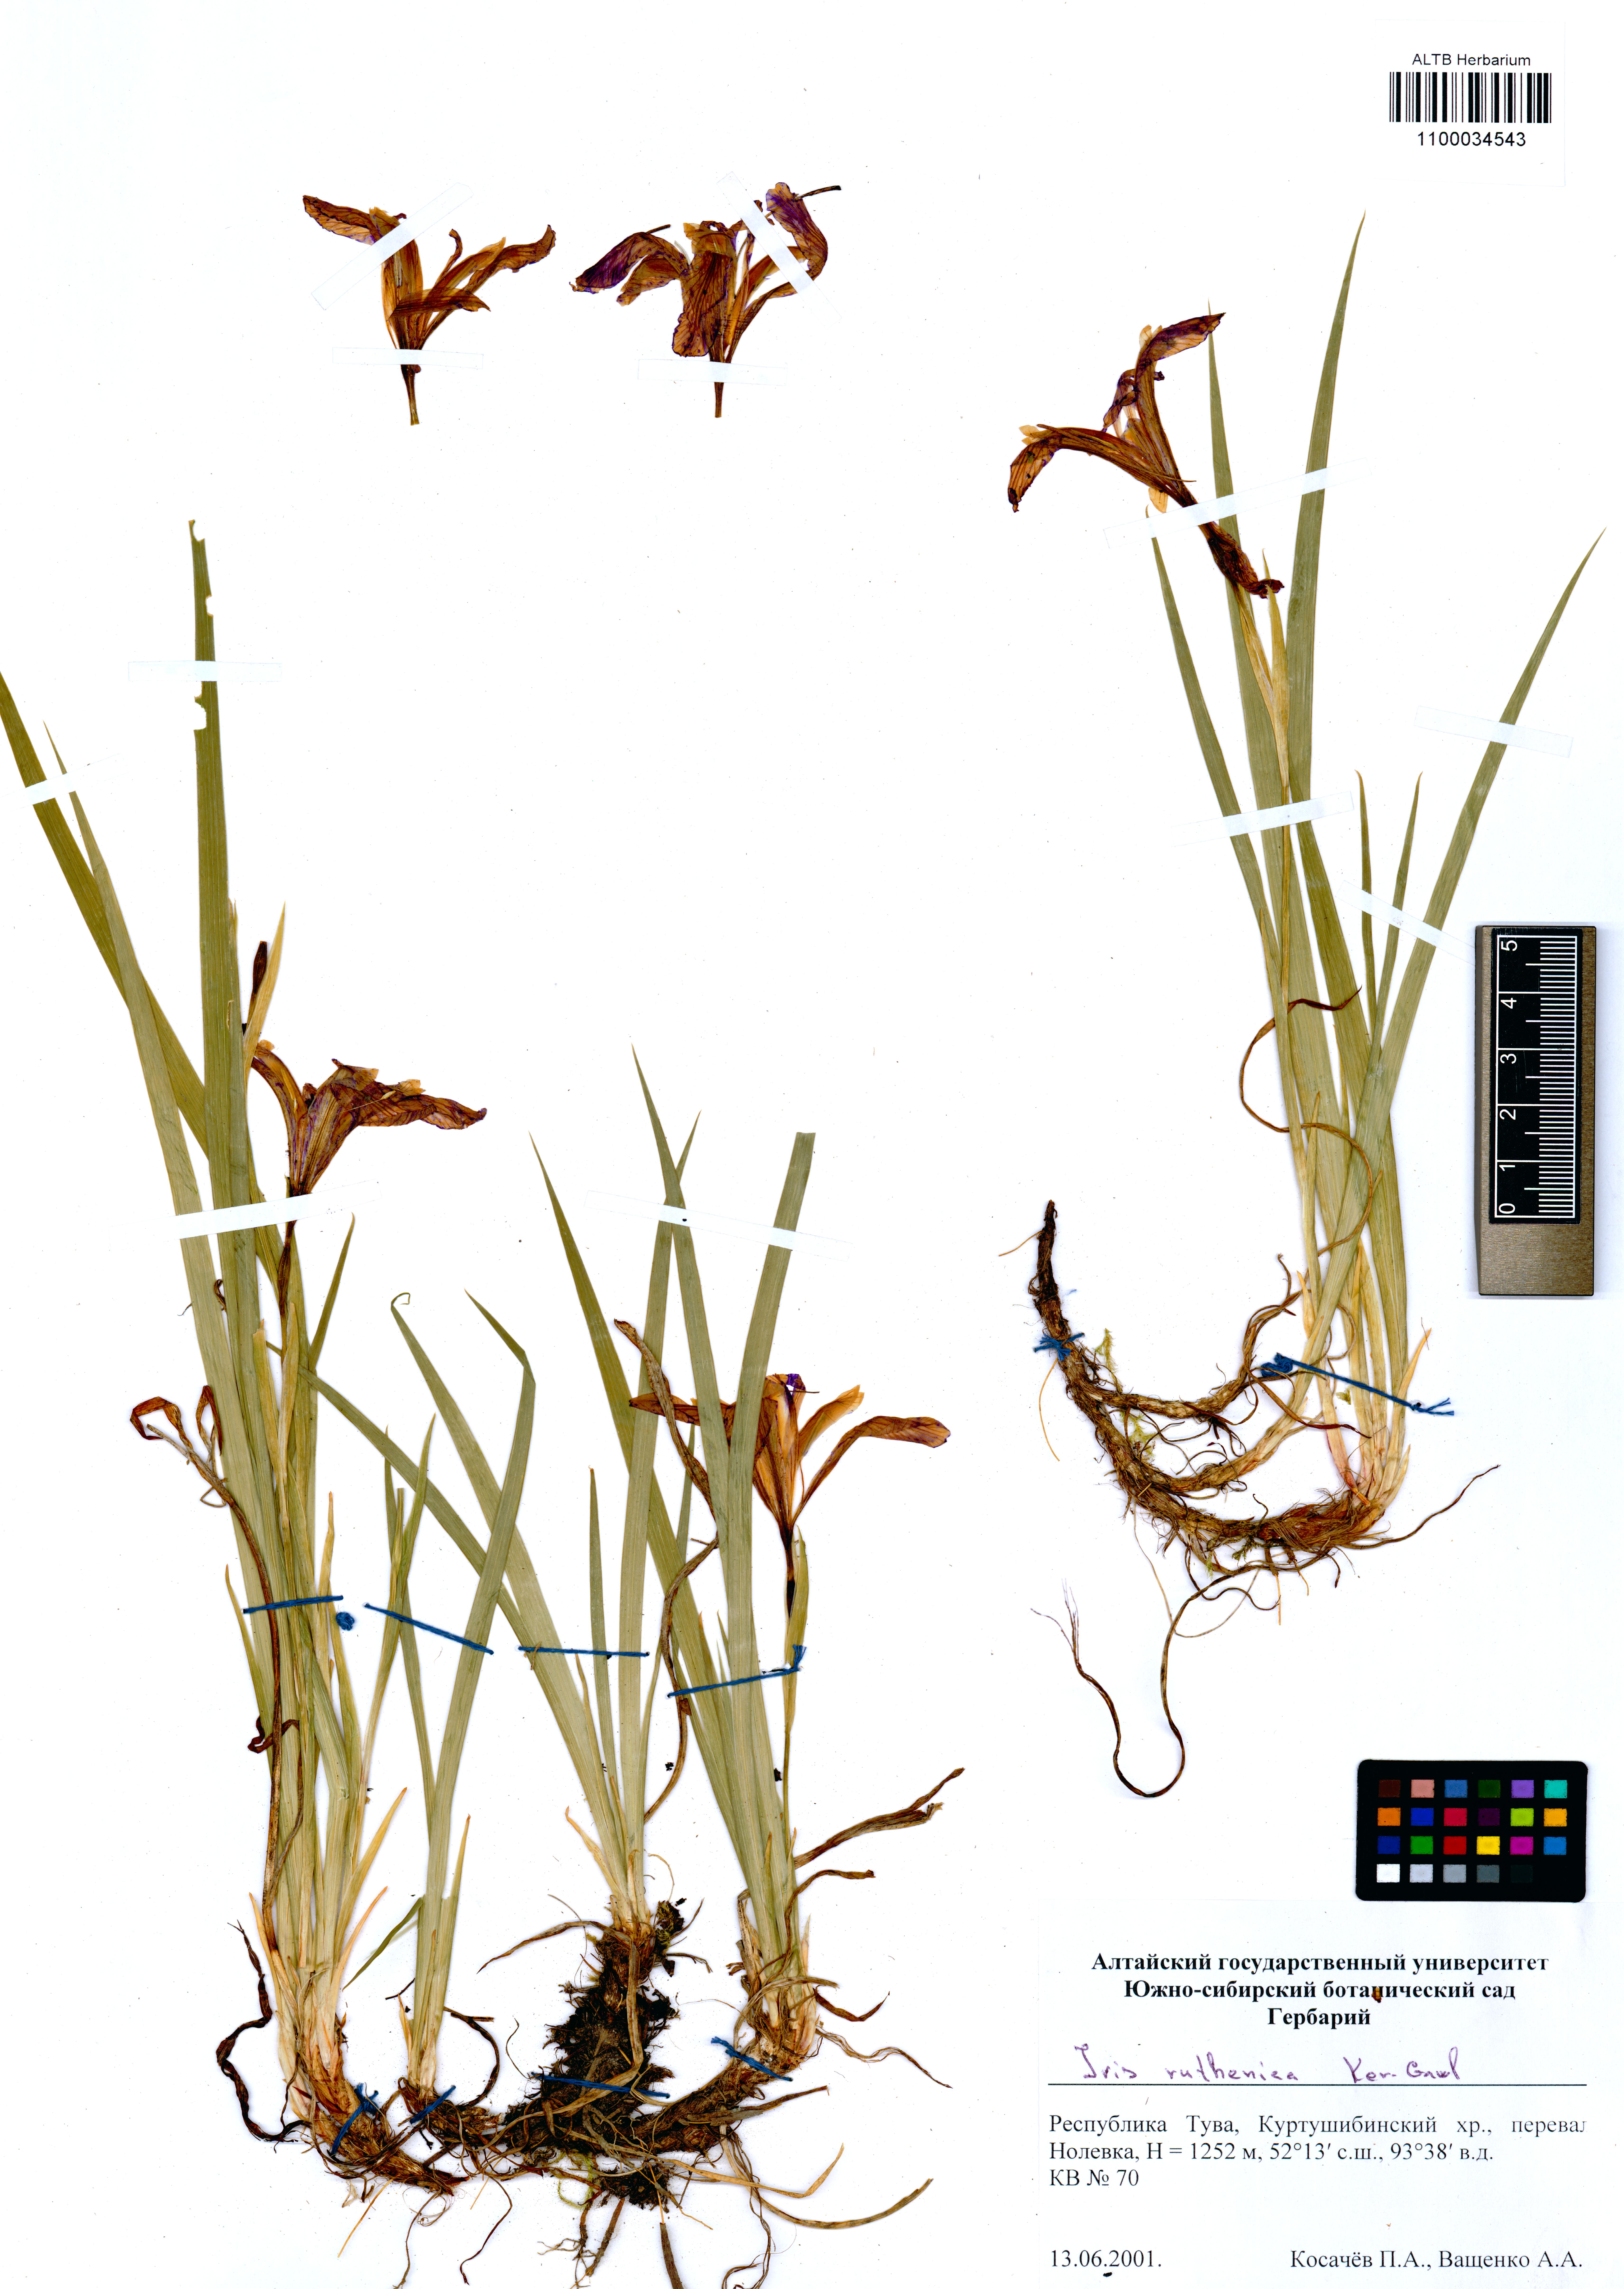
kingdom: Plantae
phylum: Tracheophyta
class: Liliopsida
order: Asparagales
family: Iridaceae
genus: Iris
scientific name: Iris ruthenica
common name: Purple-bract iris
